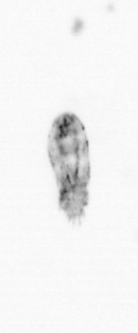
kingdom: Animalia
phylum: Arthropoda
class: Copepoda
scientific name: Copepoda
